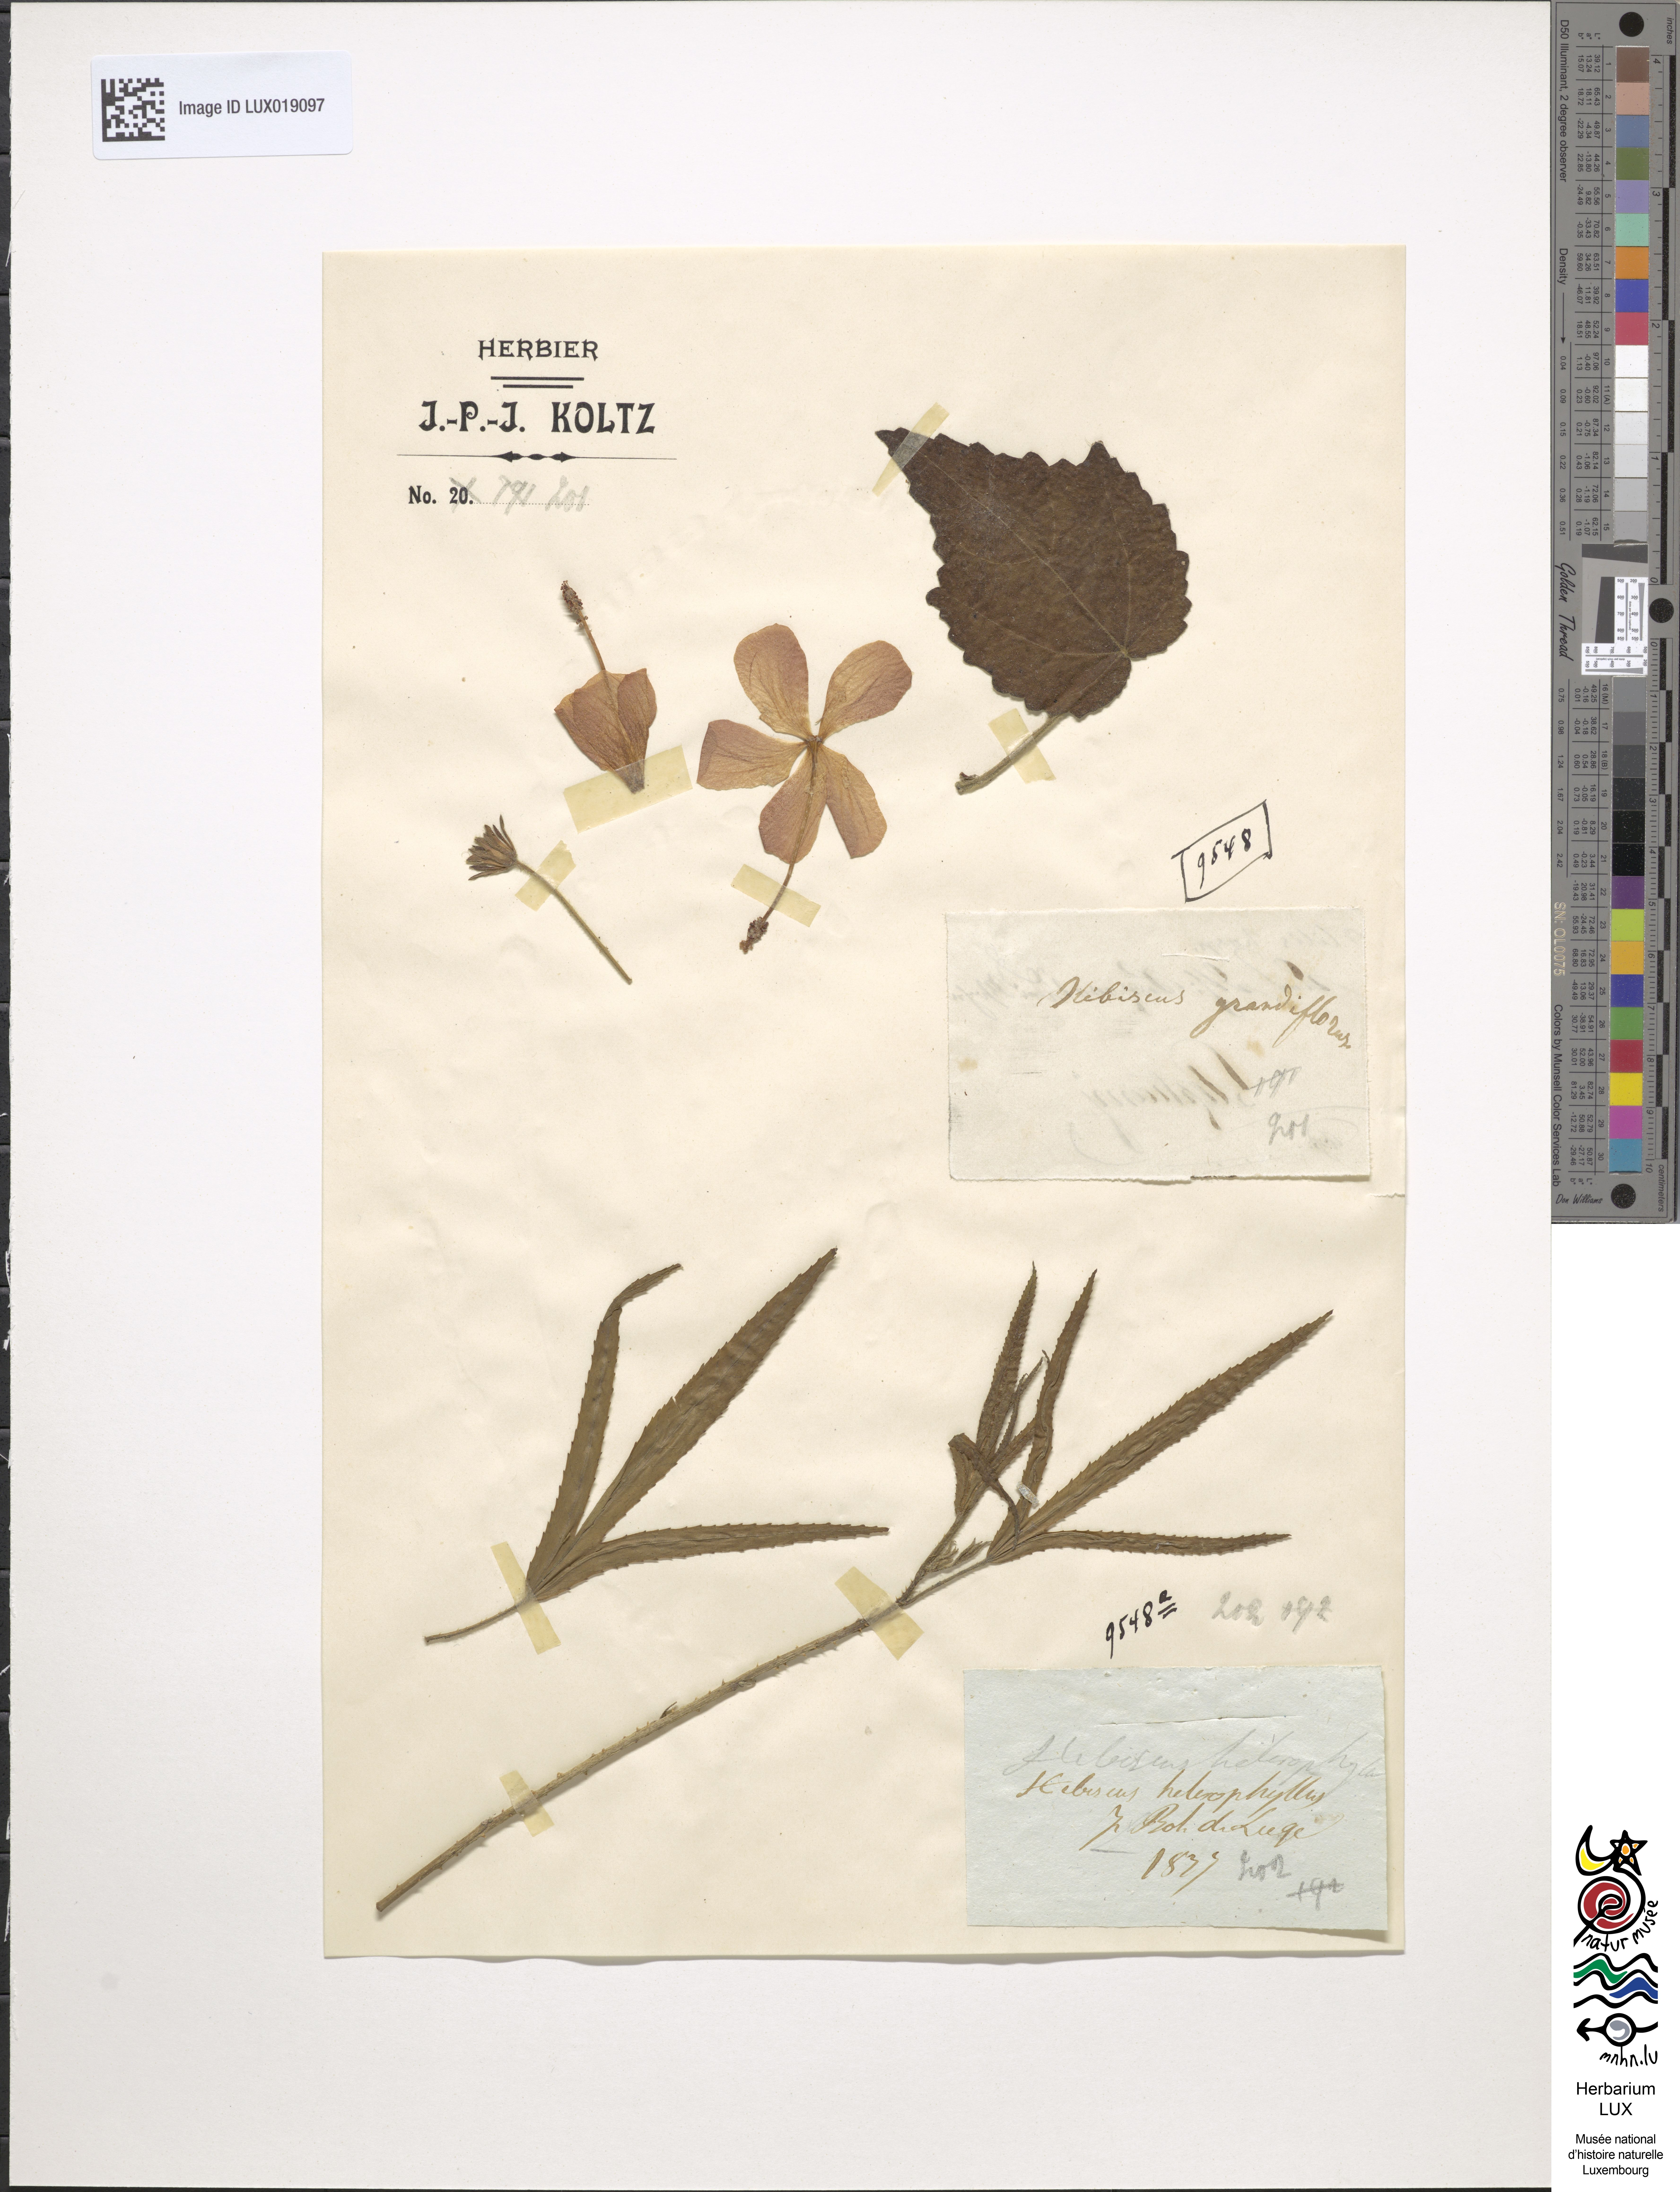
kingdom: Plantae
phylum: Tracheophyta
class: Magnoliopsida
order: Malvales
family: Malvaceae
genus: Hibiscus
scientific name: Hibiscus grandiflorus
